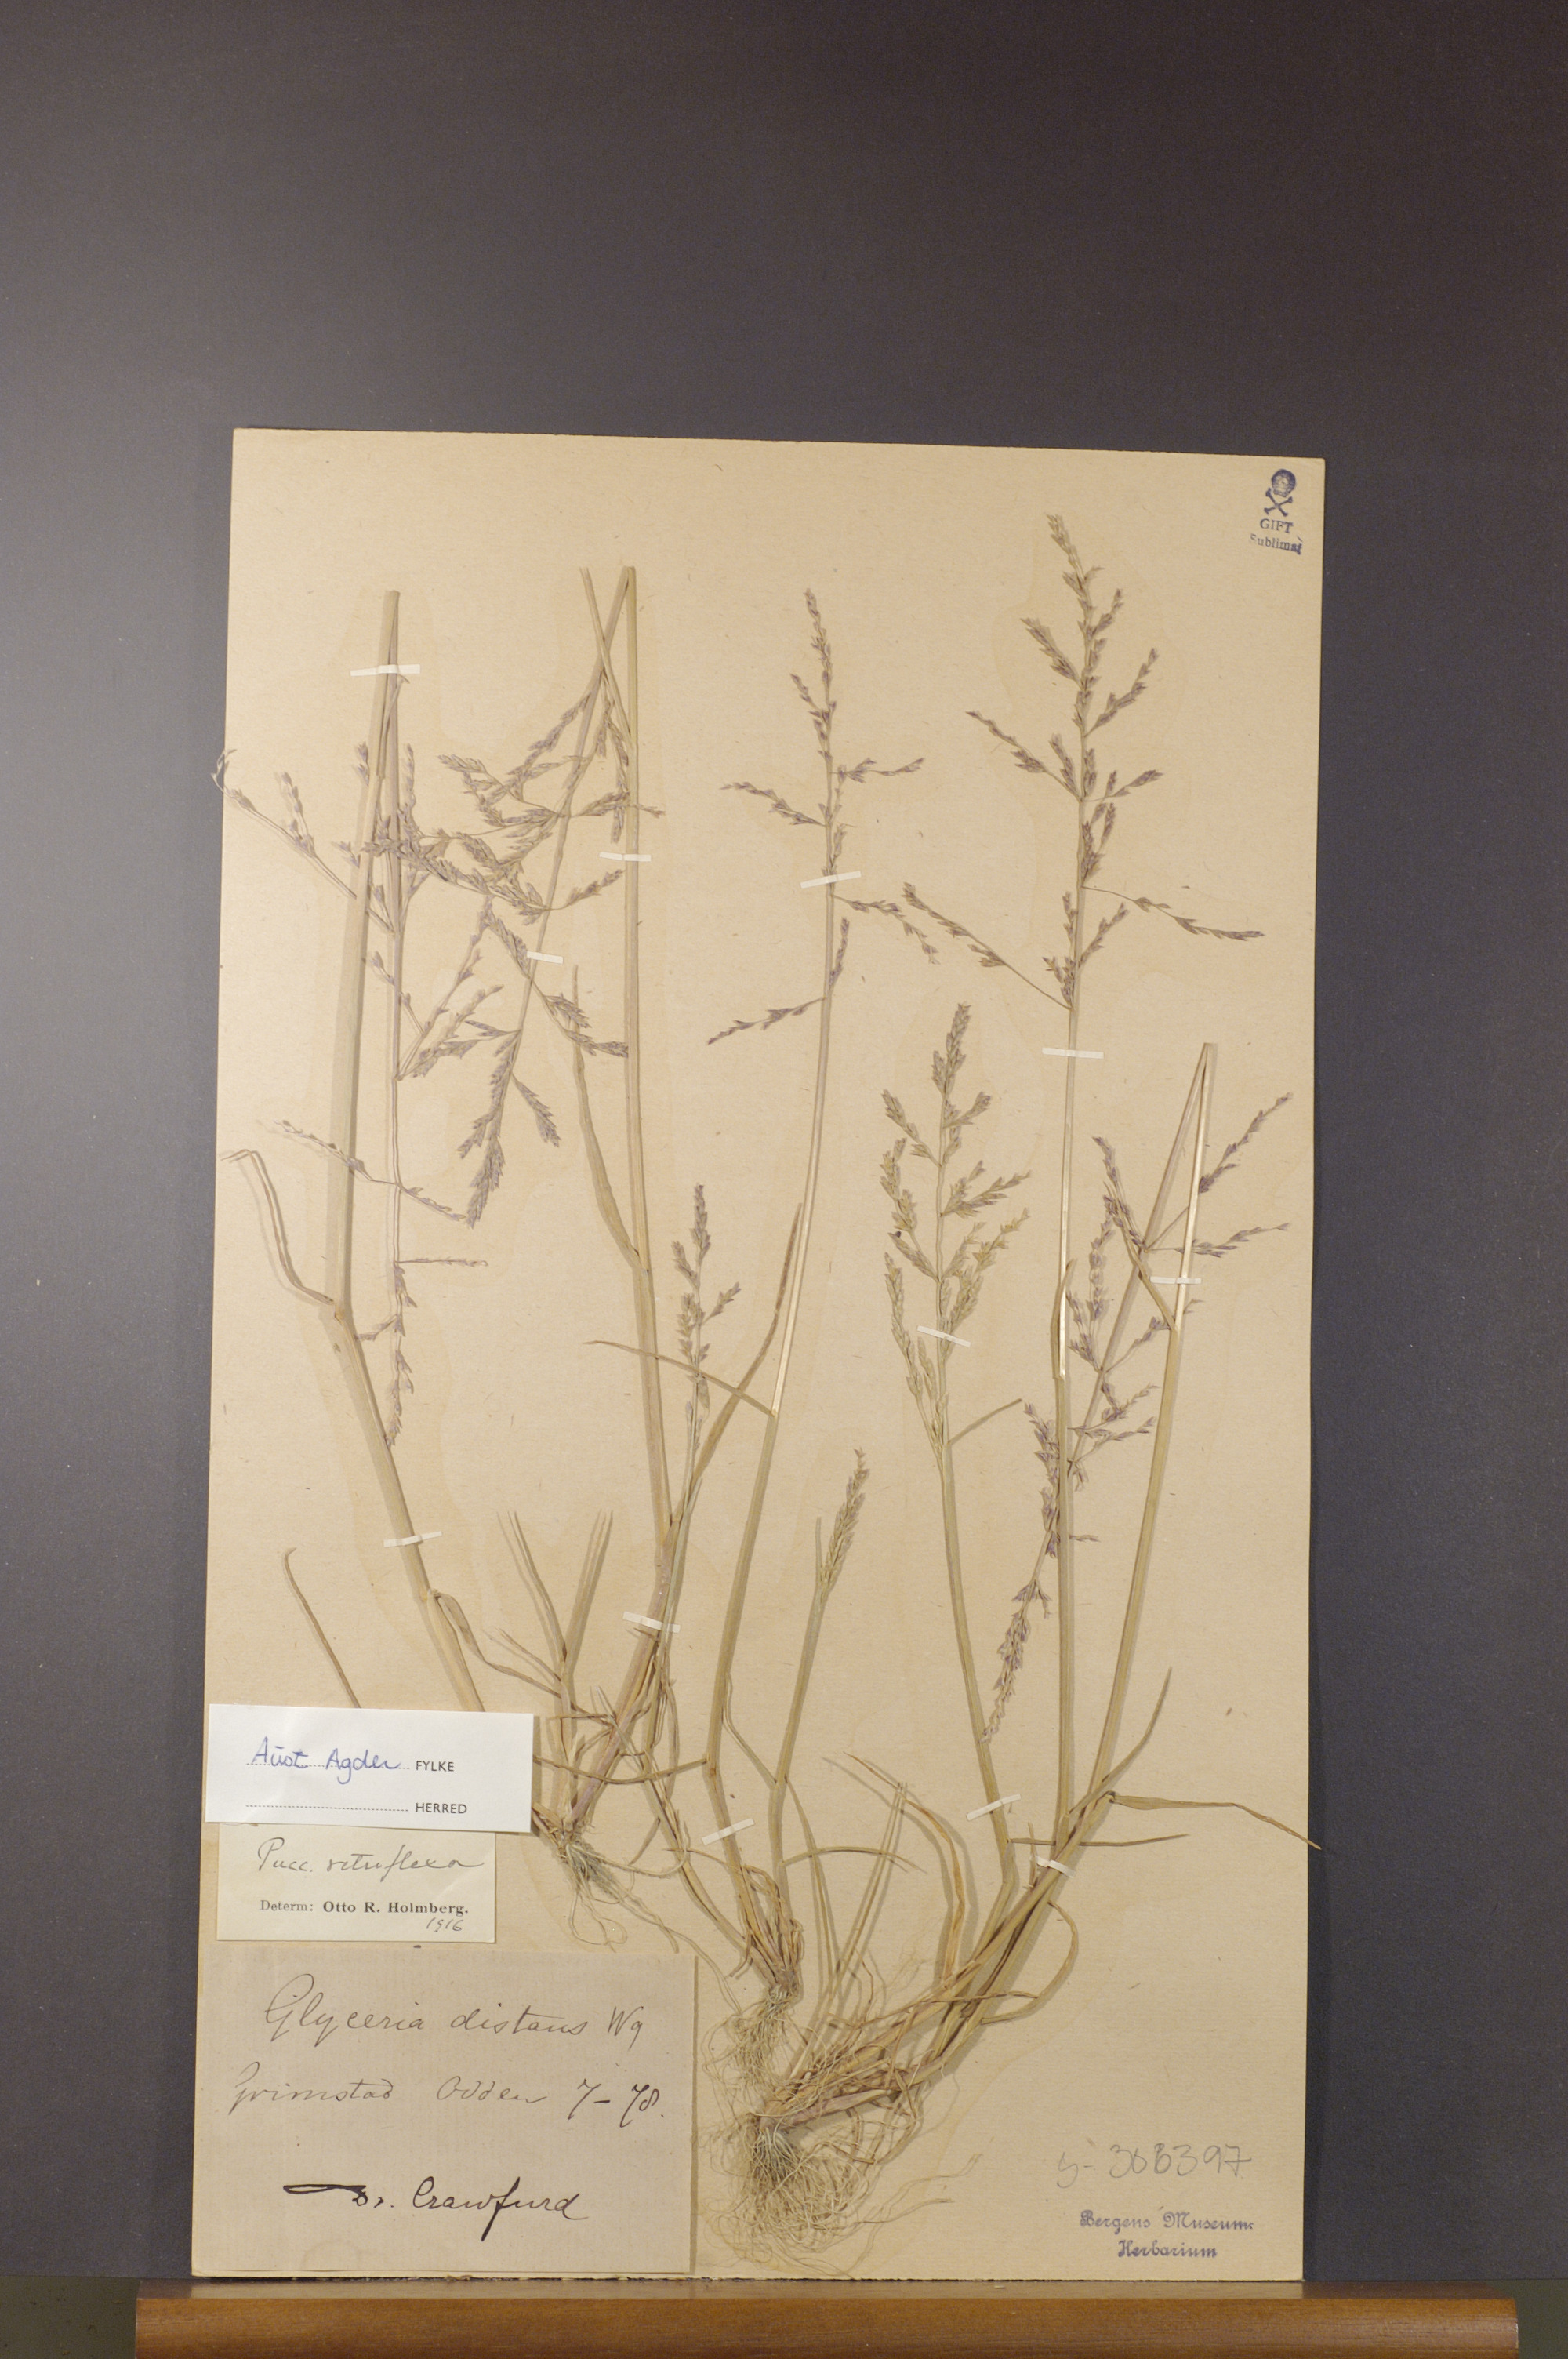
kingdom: Plantae
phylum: Tracheophyta
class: Liliopsida
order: Poales
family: Poaceae
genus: Puccinellia
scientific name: Puccinellia distans
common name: Weeping alkaligrass
